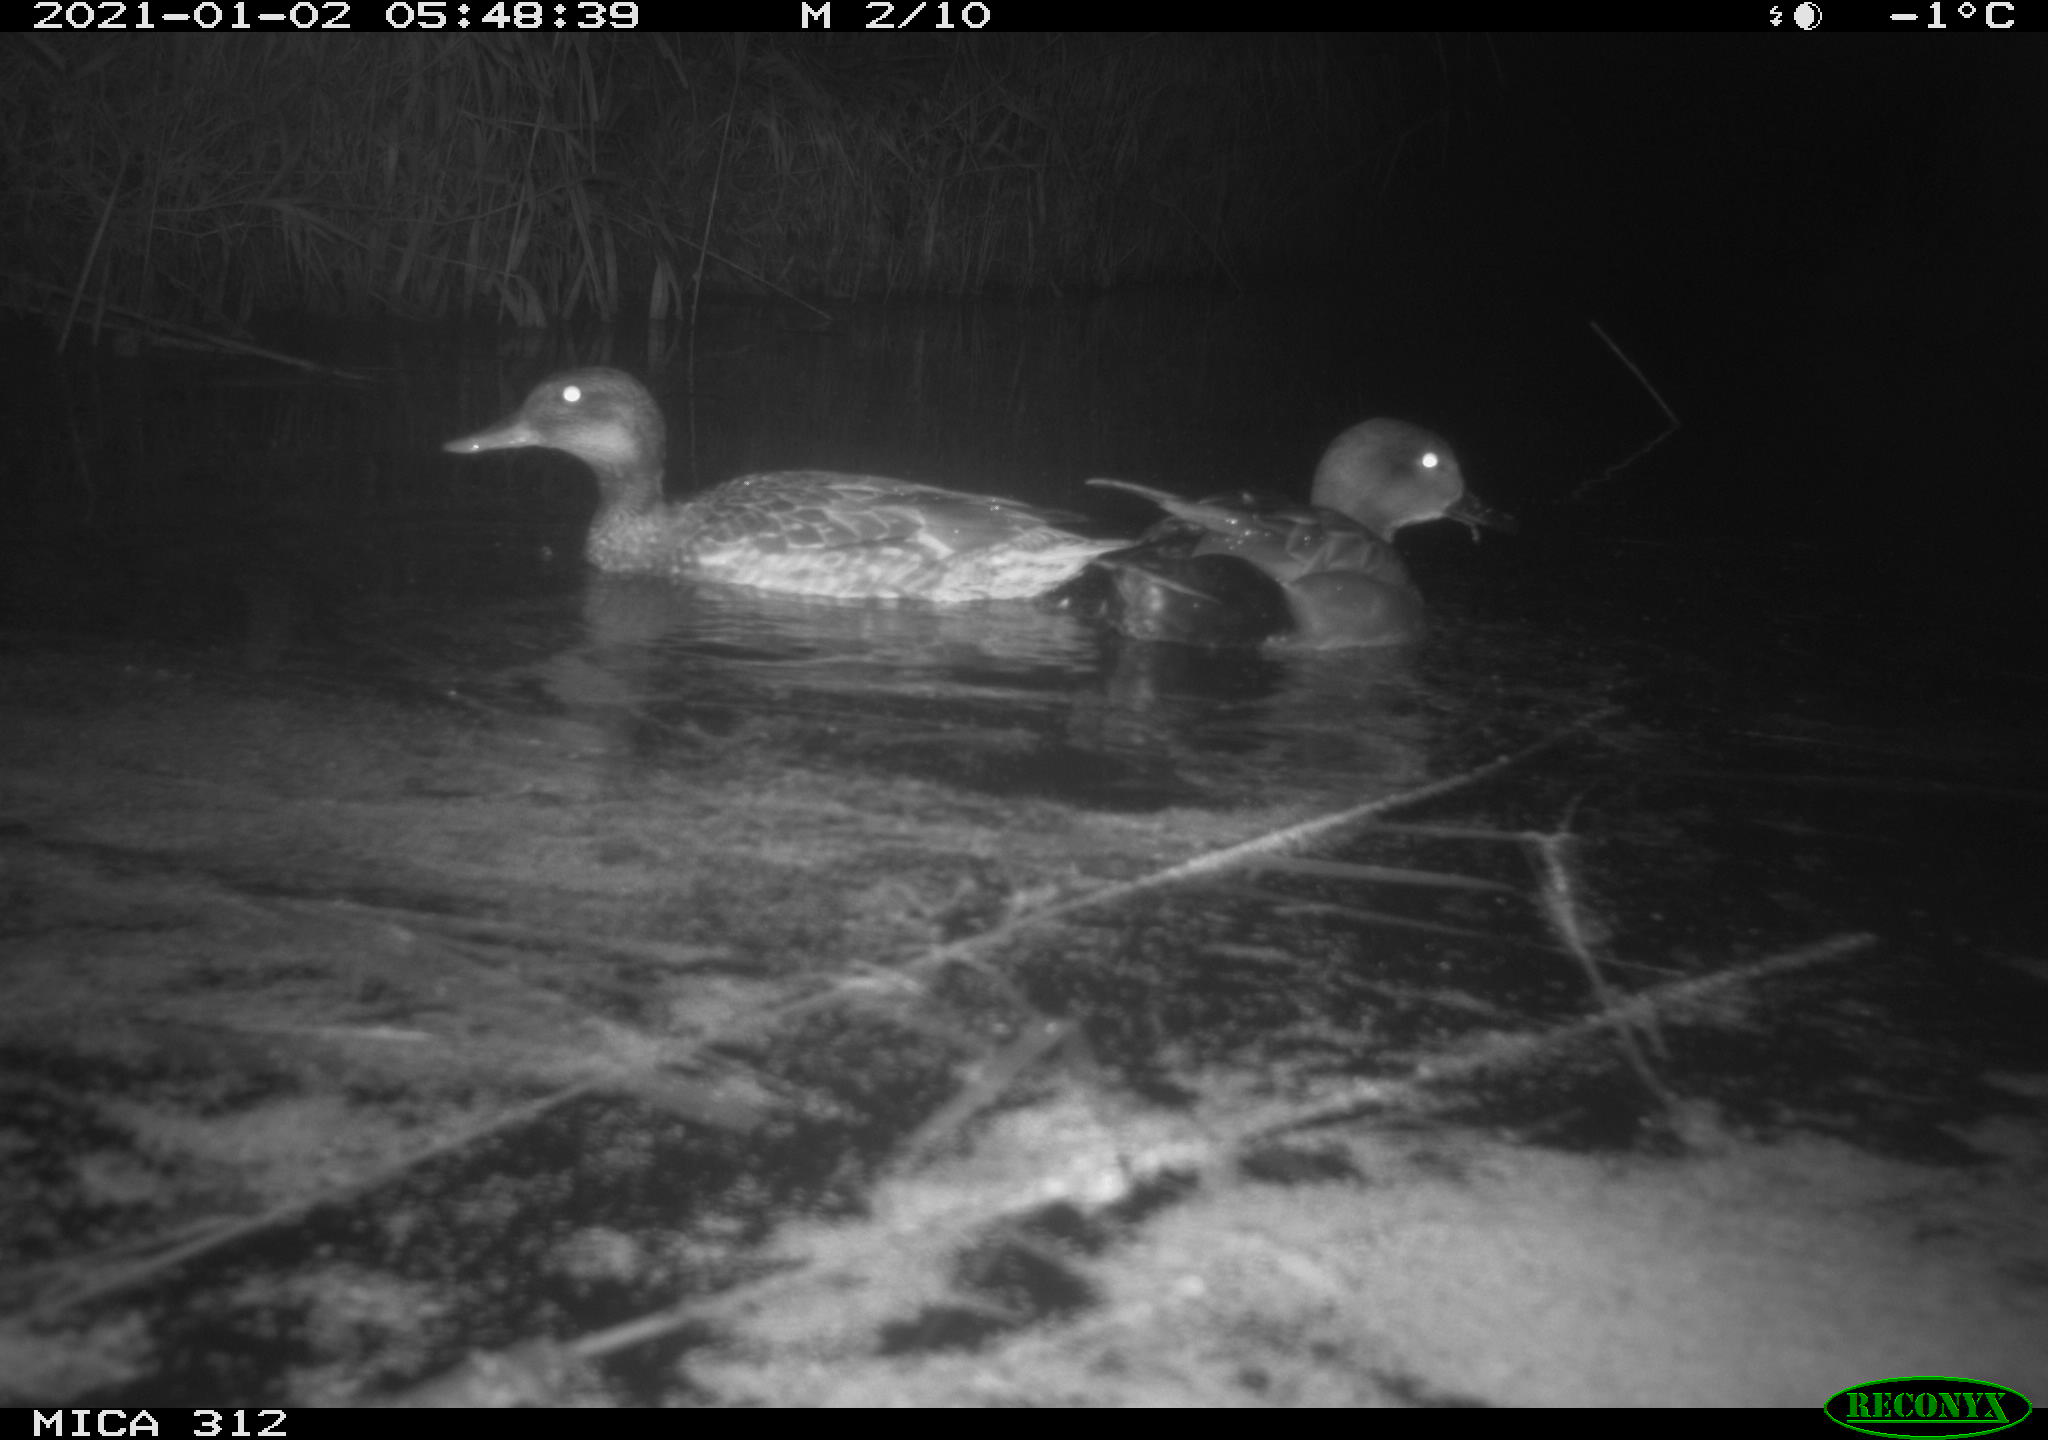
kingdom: Animalia
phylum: Chordata
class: Aves
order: Anseriformes
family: Anatidae
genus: Mareca
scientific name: Mareca strepera
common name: Gadwall
